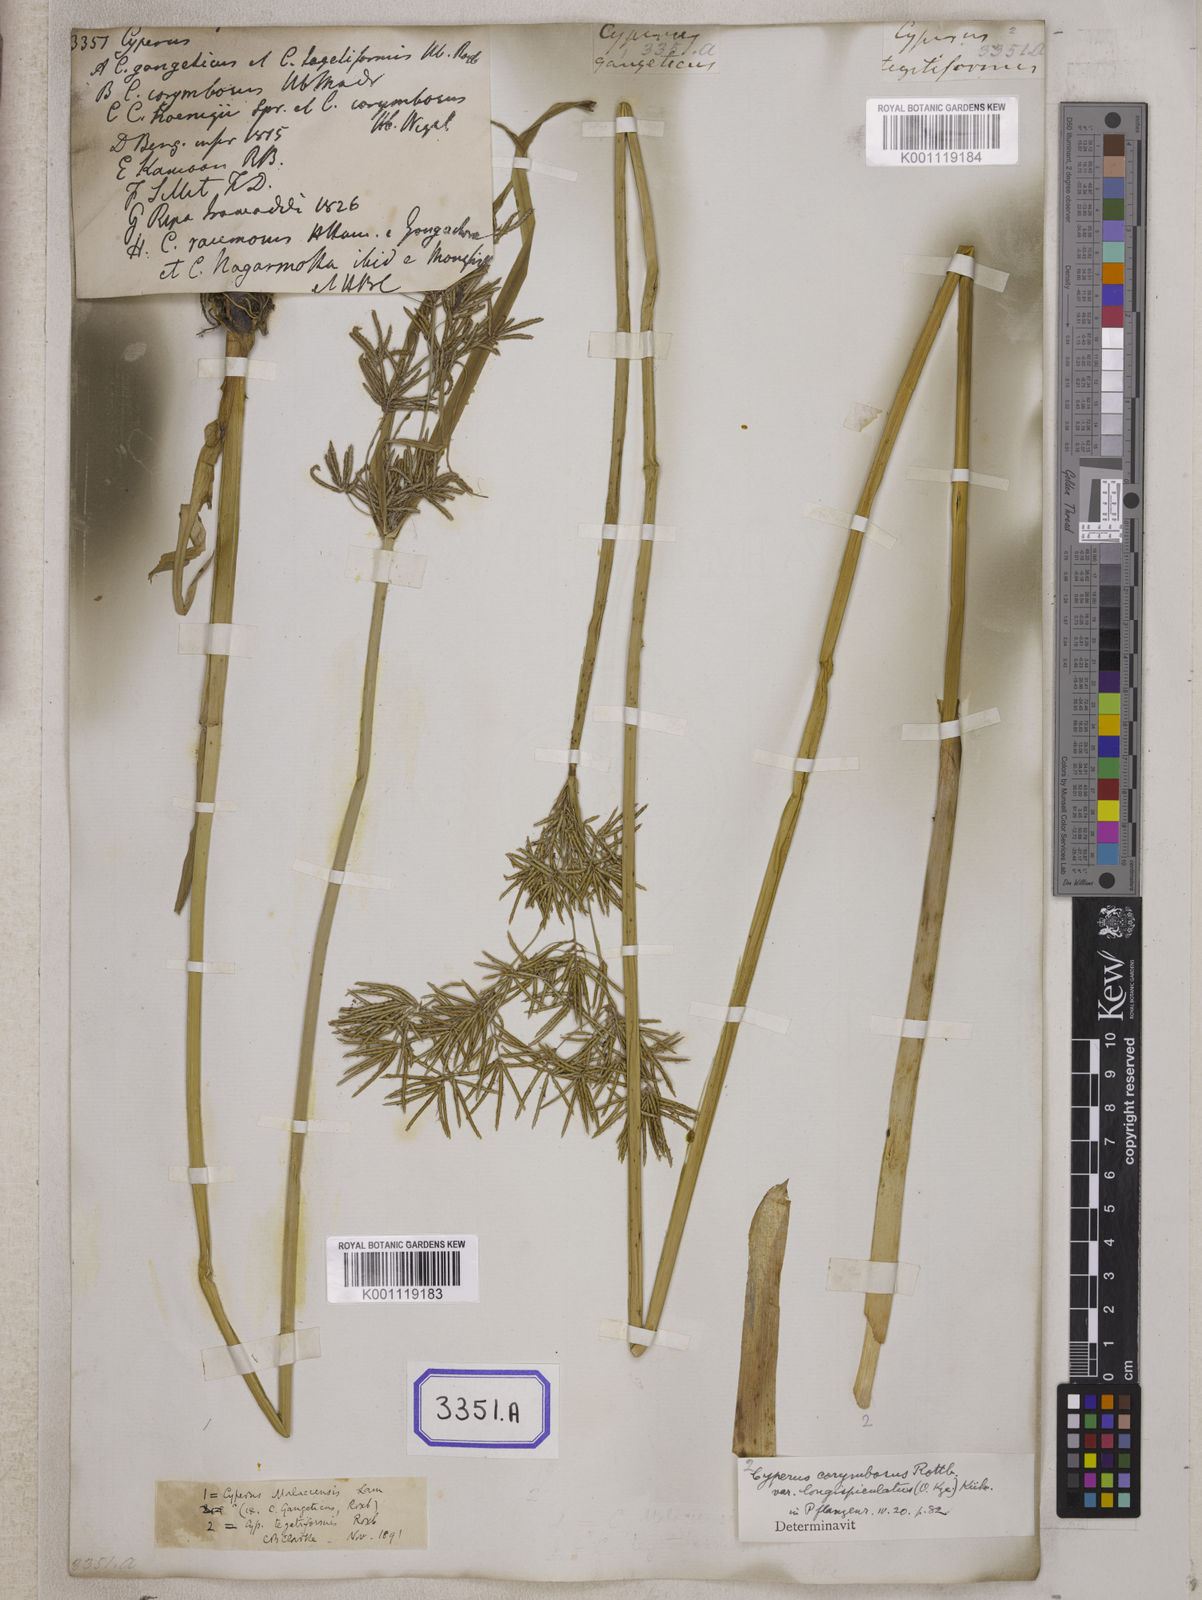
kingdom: Plantae
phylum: Tracheophyta
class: Liliopsida
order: Poales
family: Cyperaceae
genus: Cyperus
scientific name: Cyperus
